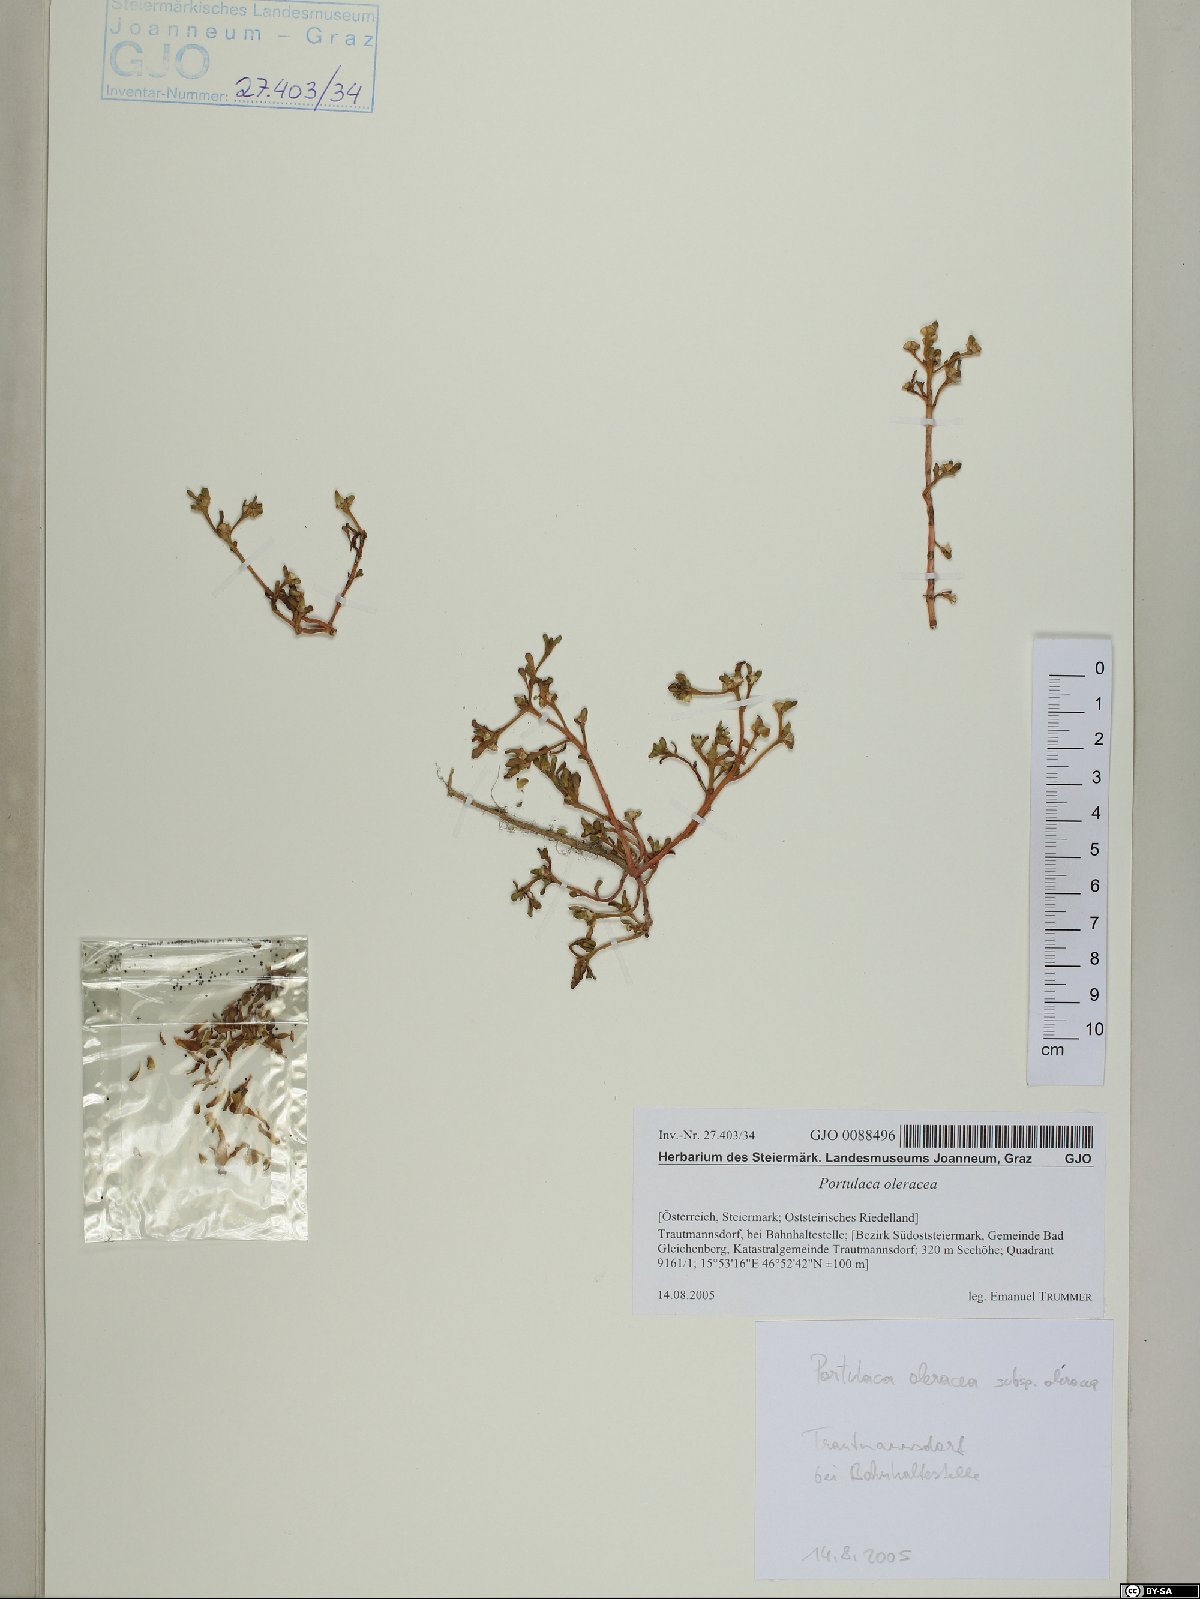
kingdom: Plantae
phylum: Tracheophyta
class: Magnoliopsida
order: Caryophyllales
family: Portulacaceae
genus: Portulaca
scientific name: Portulaca oleracea
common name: Common purslane
